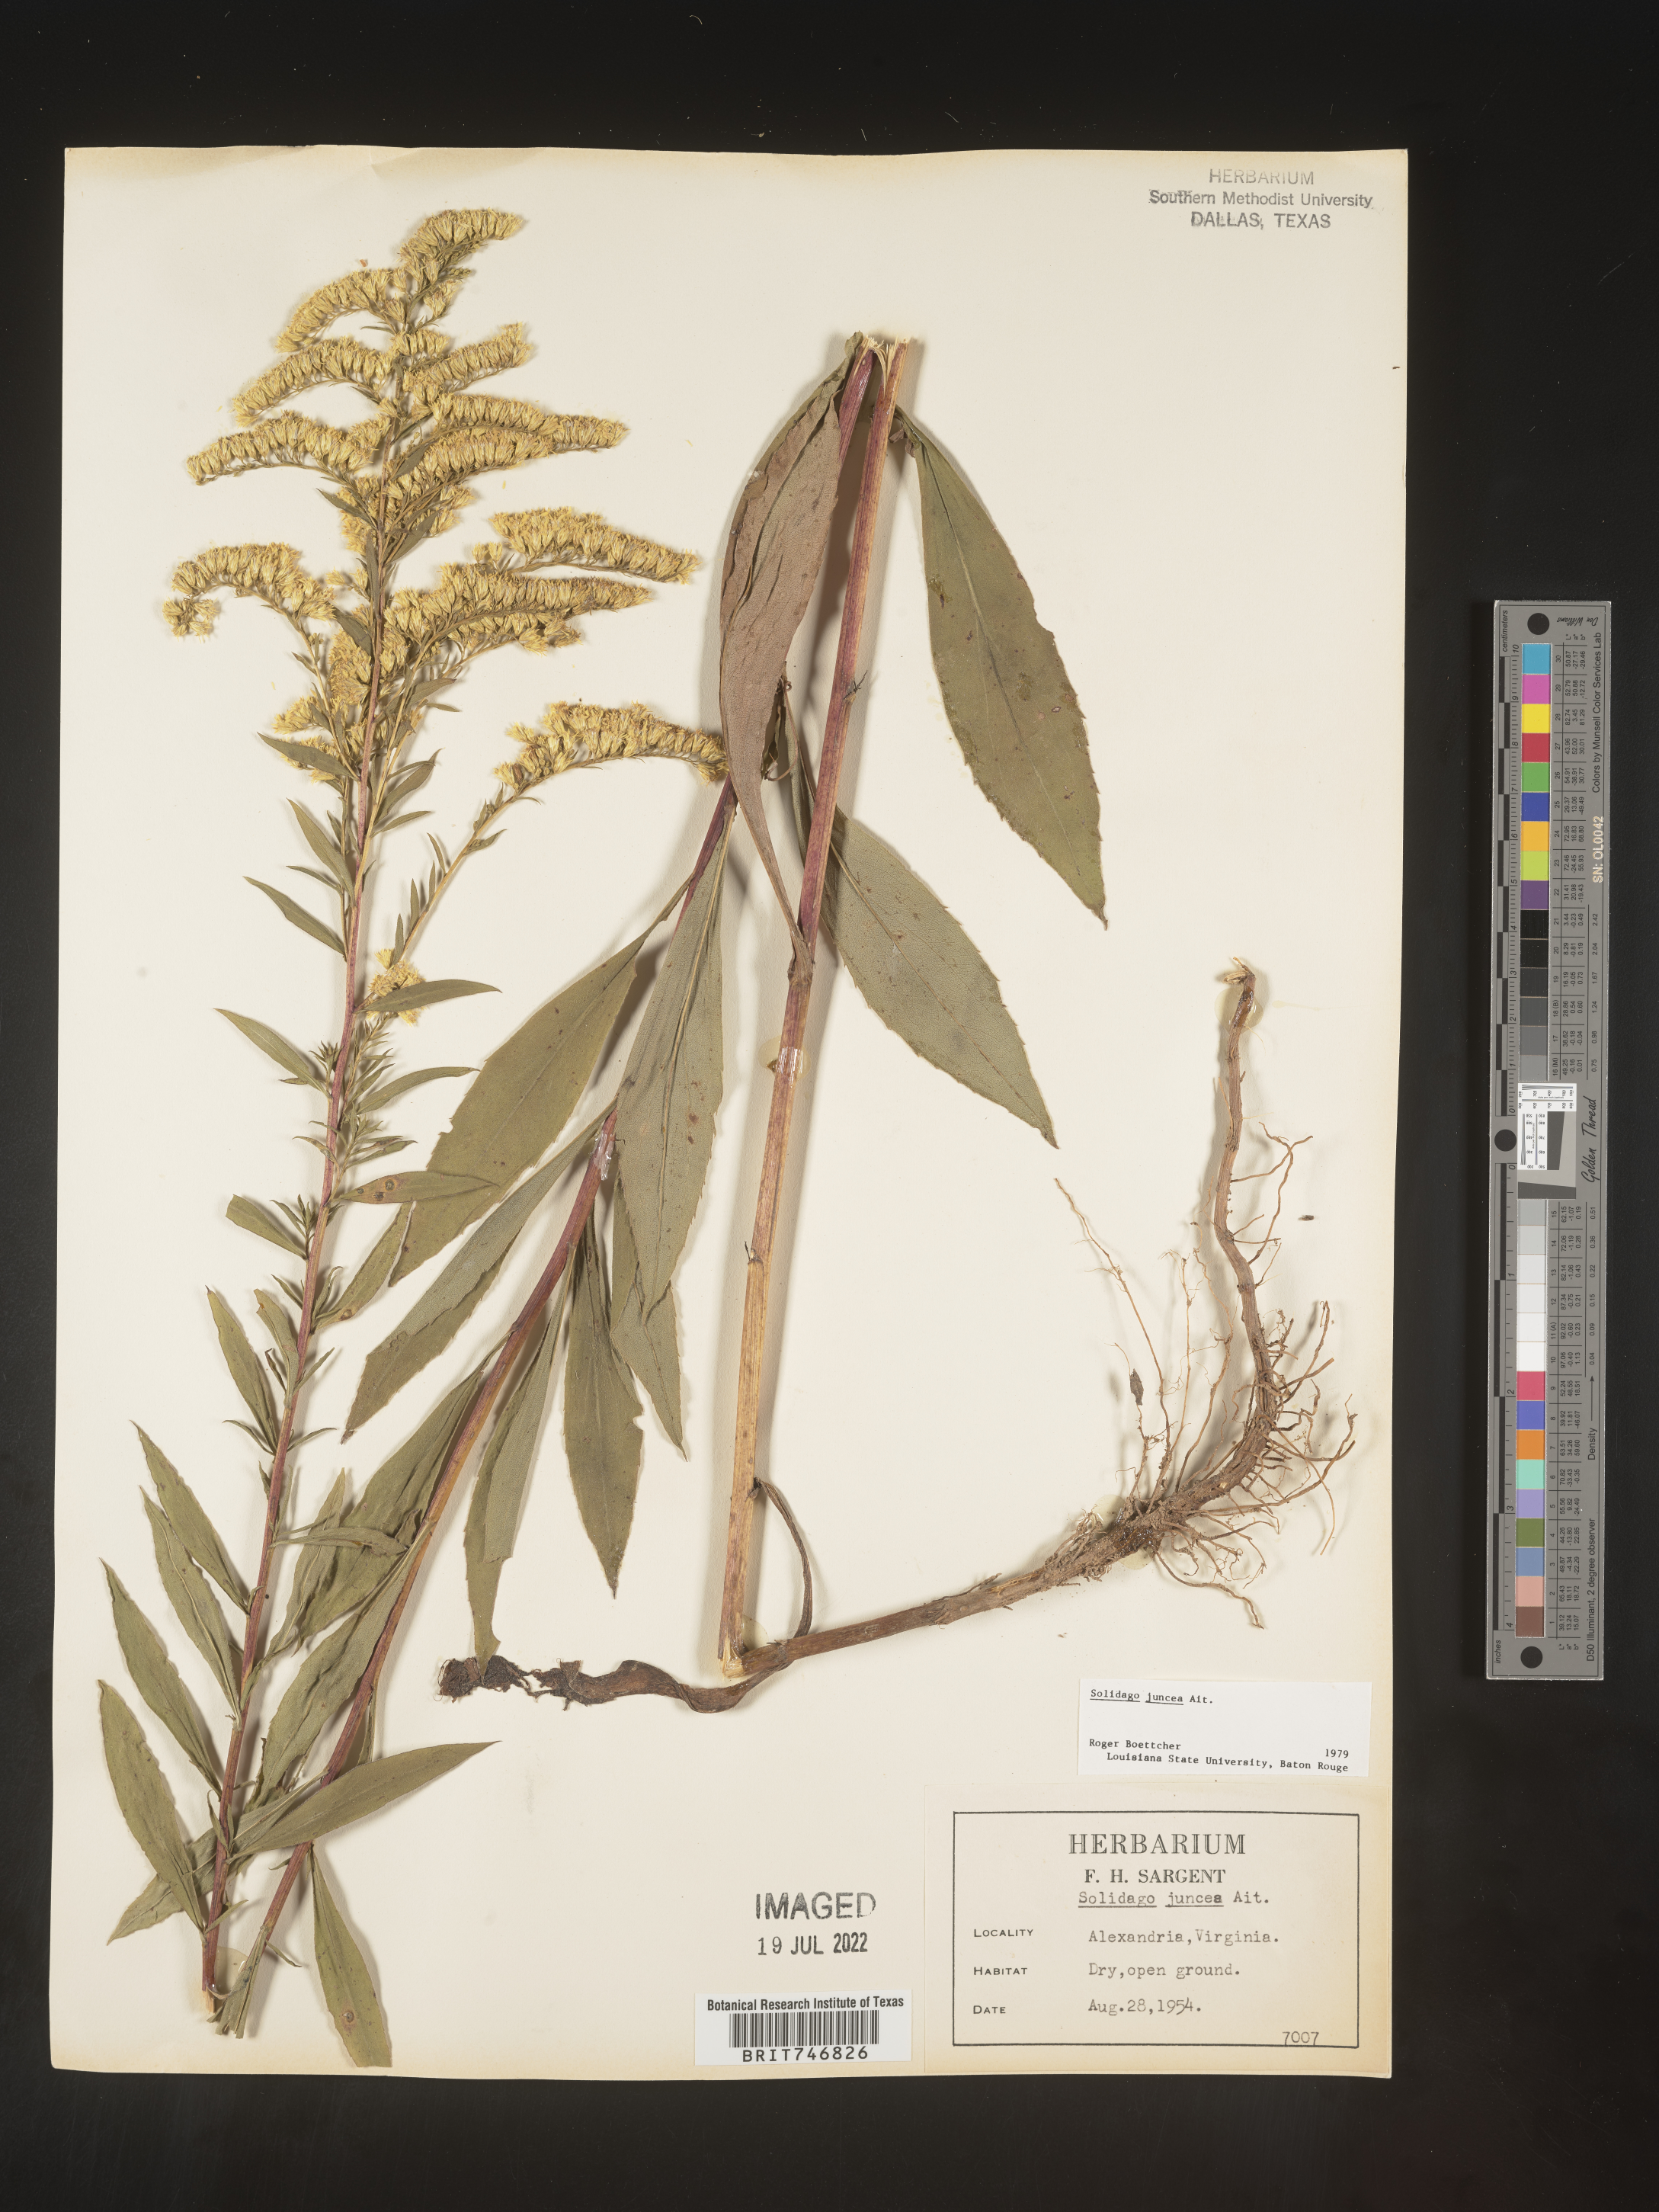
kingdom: Plantae
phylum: Tracheophyta
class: Magnoliopsida
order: Asterales
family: Asteraceae
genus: Solidago
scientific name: Solidago juncea
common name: Early goldenrod
